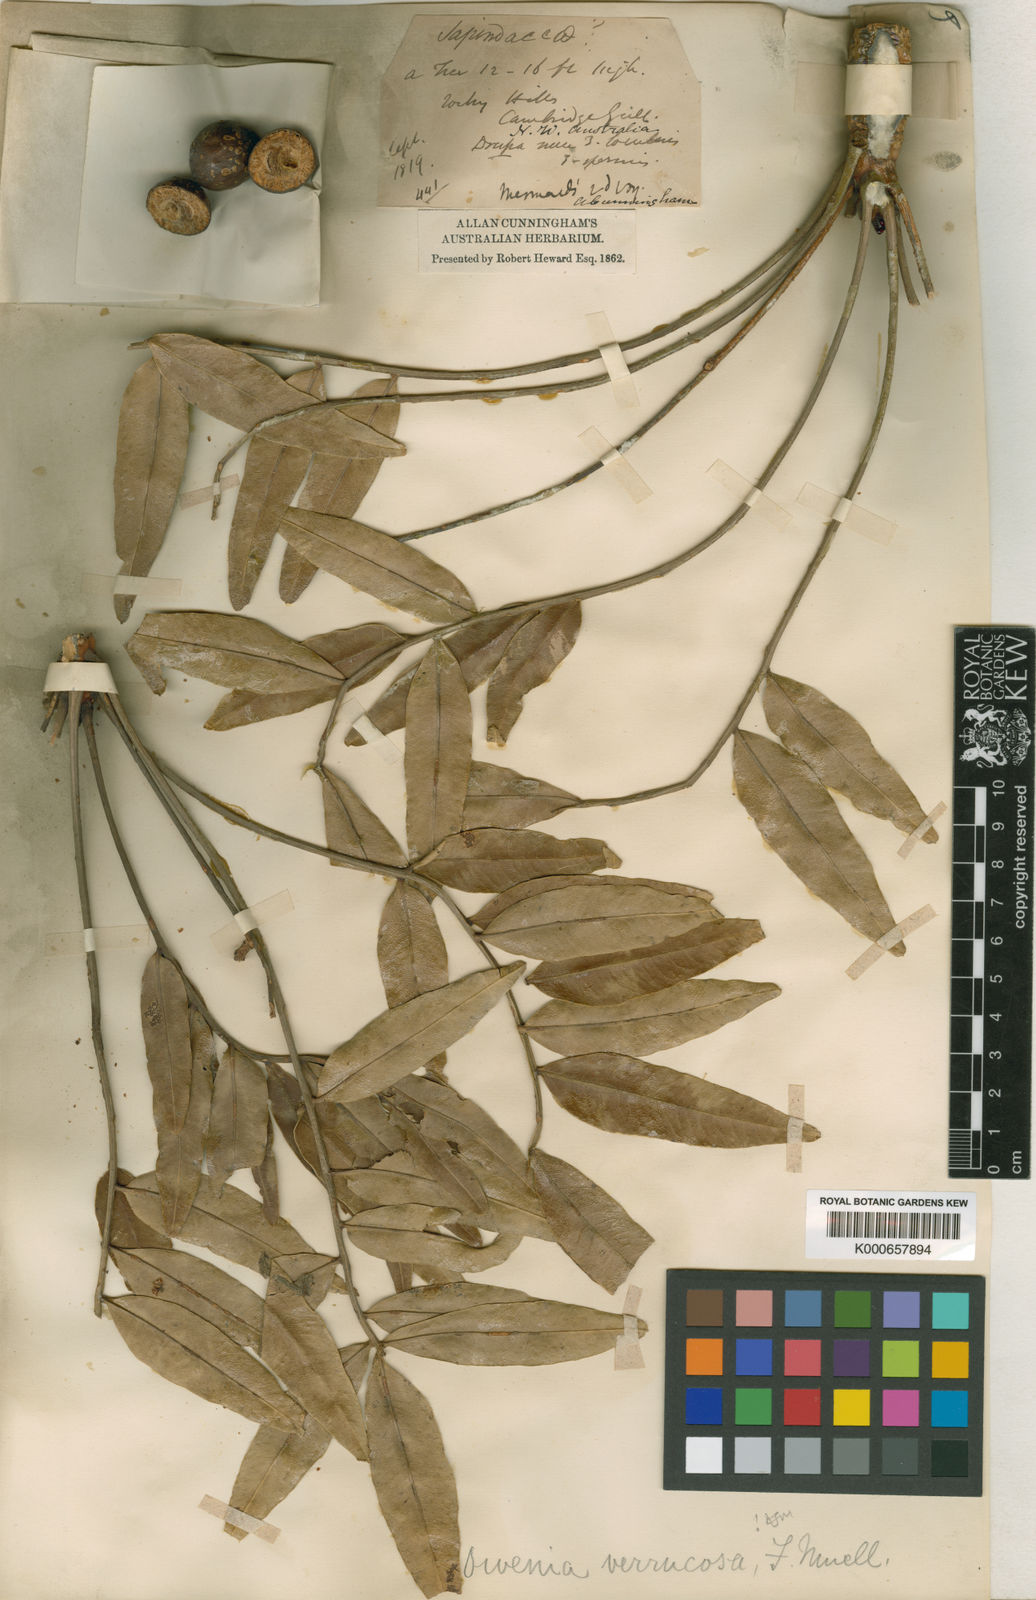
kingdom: Plantae
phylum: Tracheophyta
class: Magnoliopsida
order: Sapindales
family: Meliaceae
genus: Owenia
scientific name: Owenia vernicosa
